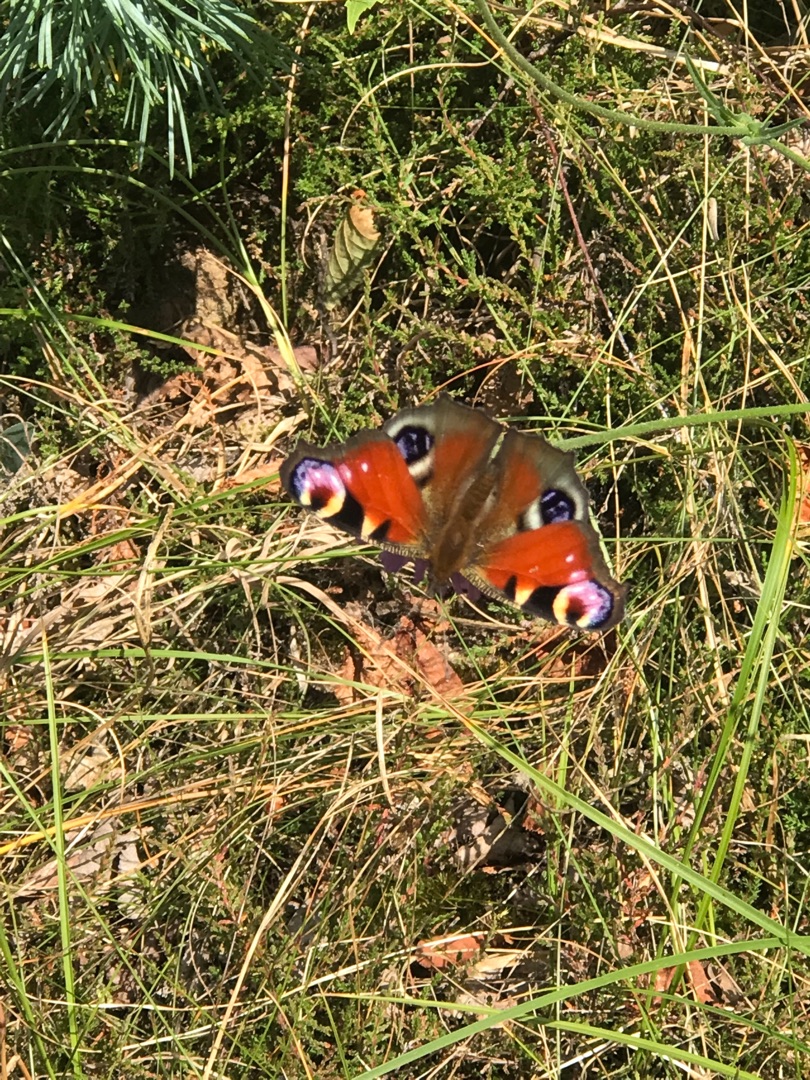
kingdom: Animalia
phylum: Arthropoda
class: Insecta
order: Lepidoptera
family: Nymphalidae
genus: Aglais
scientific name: Aglais io
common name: Dagpåfugleøje
